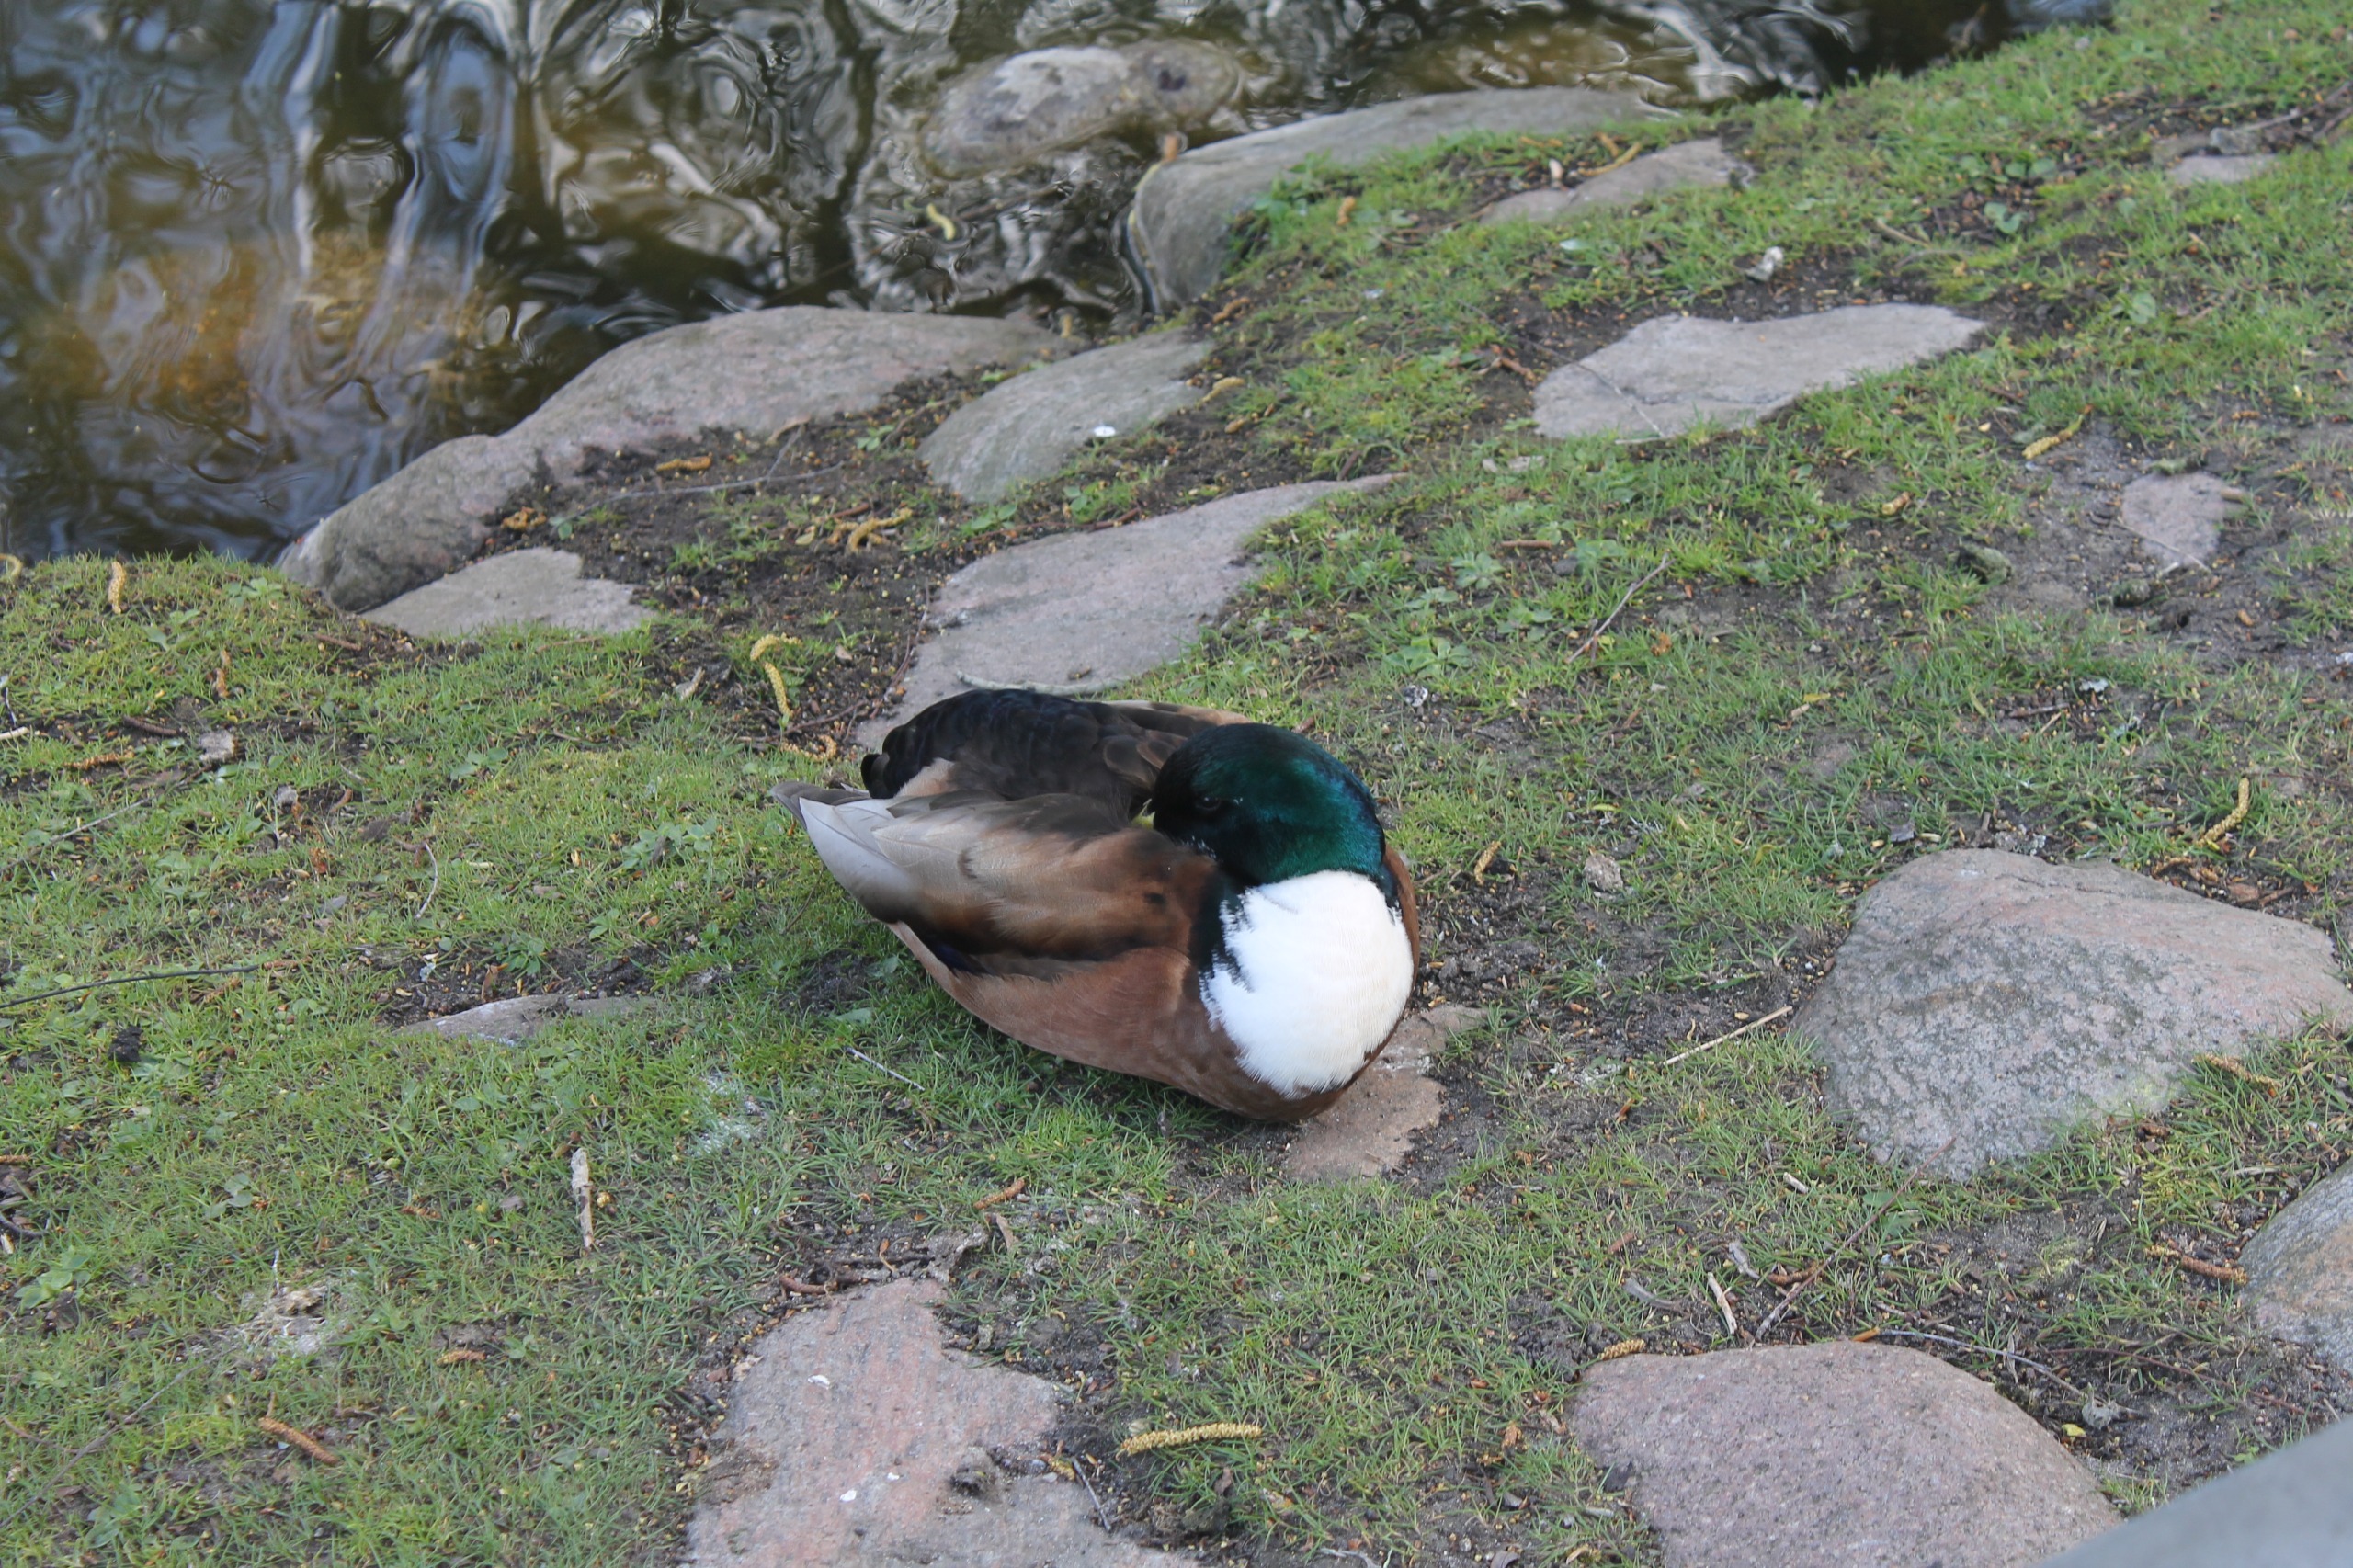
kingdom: Animalia
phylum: Chordata
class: Aves
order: Anseriformes
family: Anatidae
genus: Anas
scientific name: Anas platyrhynchos
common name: Gråand
